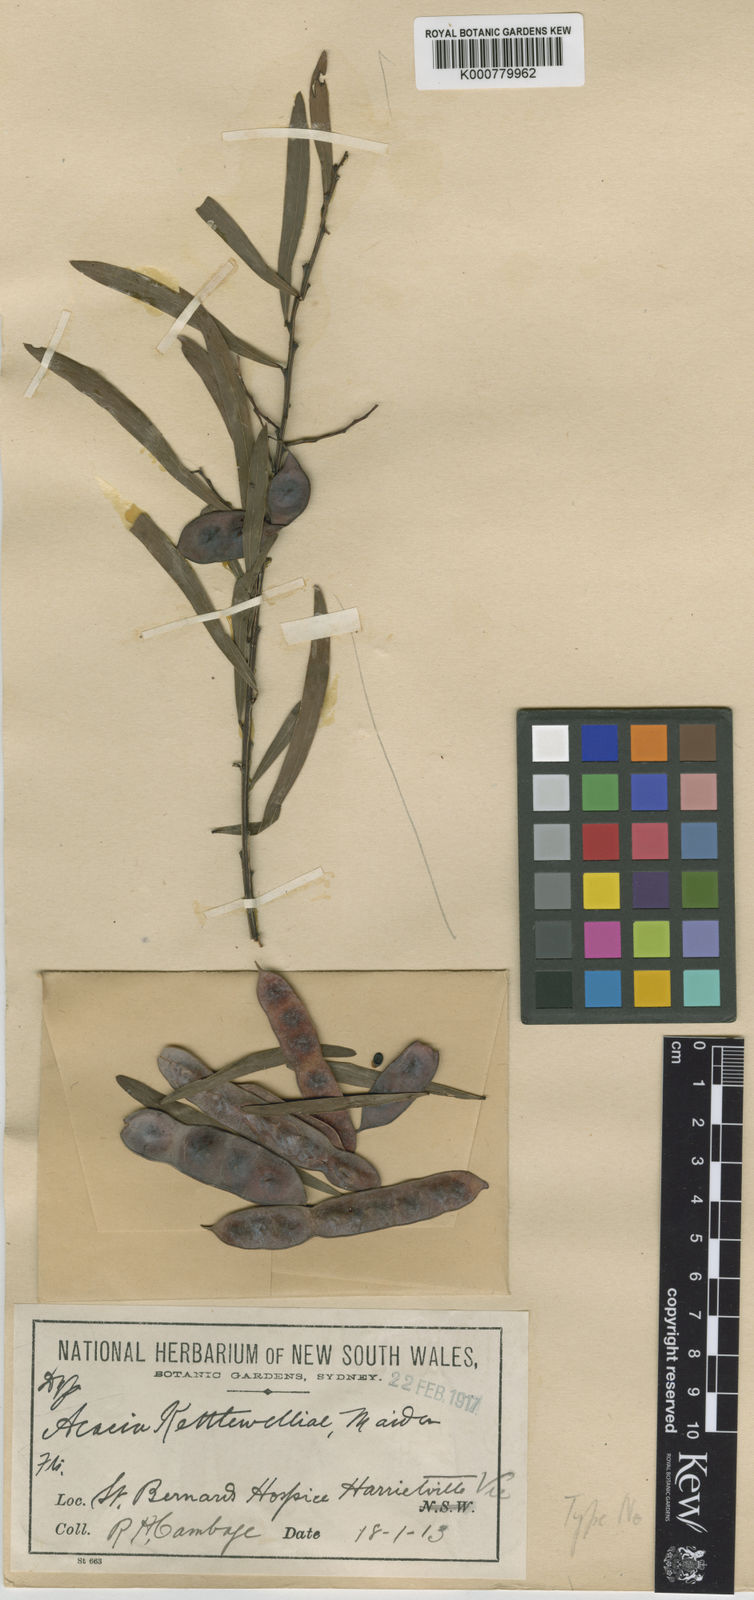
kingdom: Plantae
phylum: Tracheophyta
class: Magnoliopsida
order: Fabales
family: Fabaceae
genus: Acacia
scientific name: Acacia kettlewelliae
